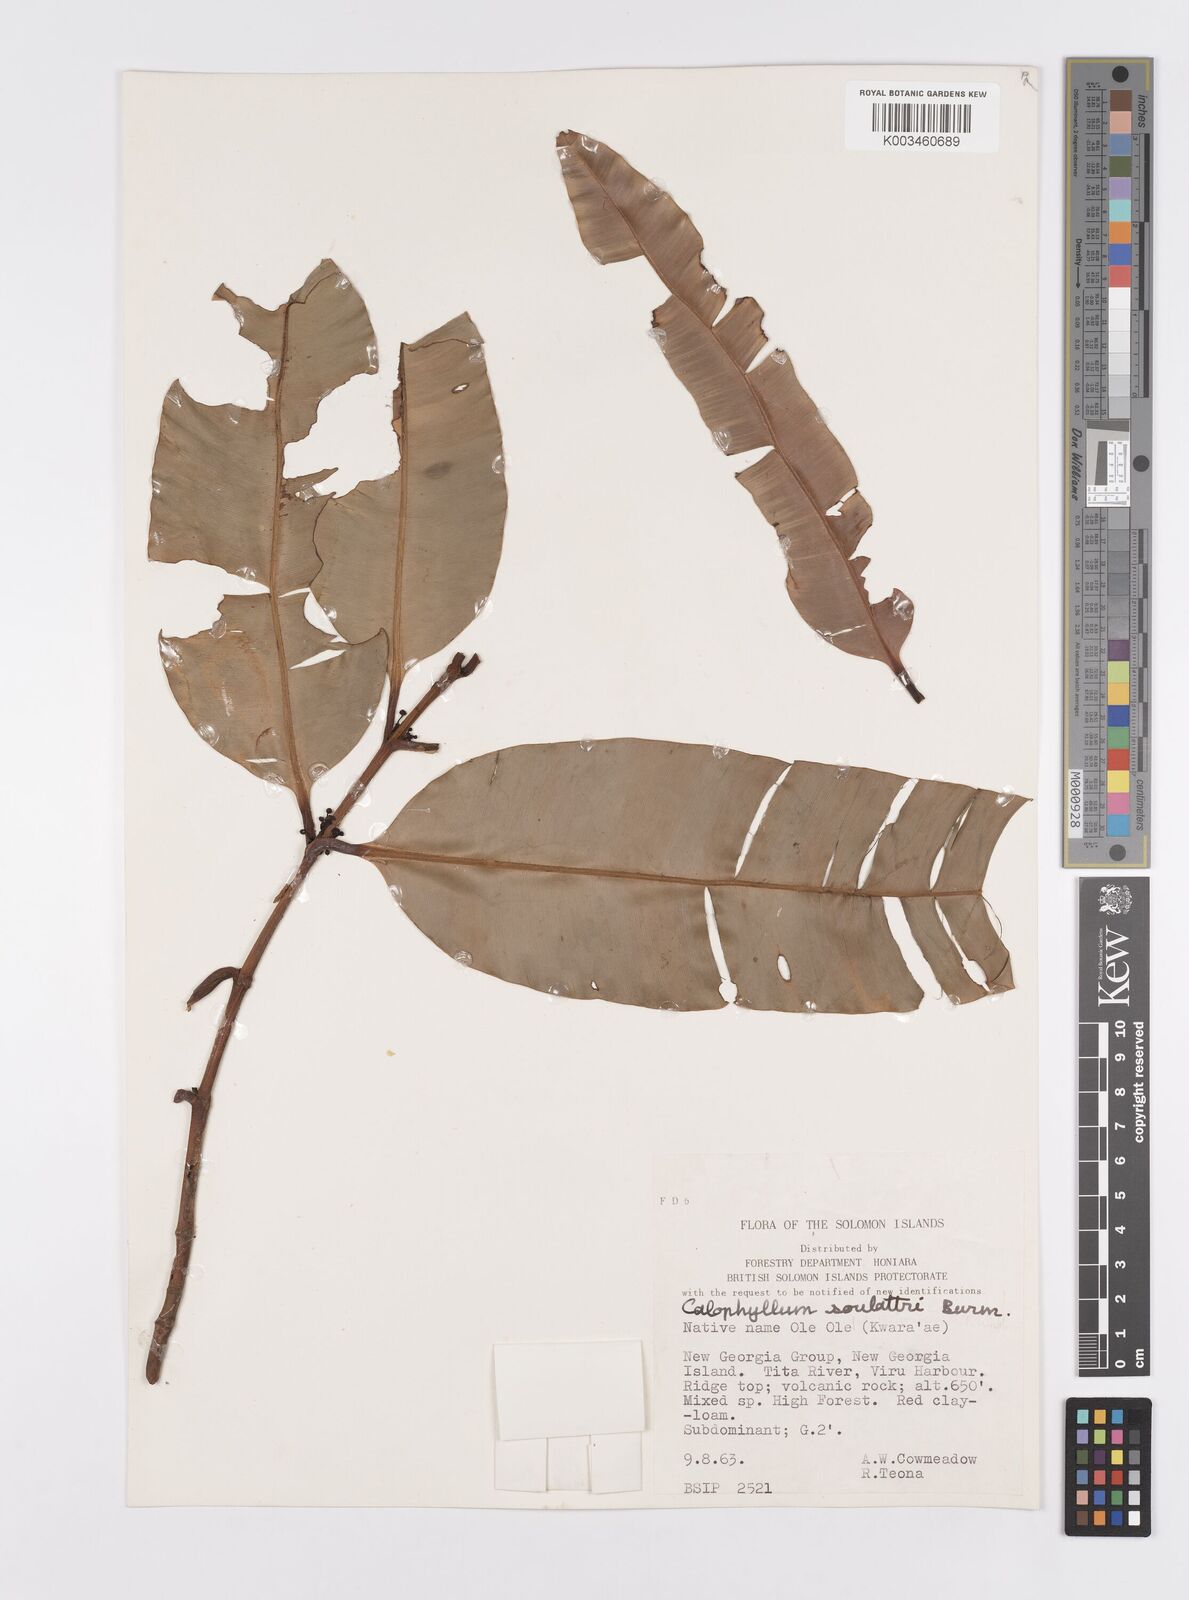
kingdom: Plantae
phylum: Tracheophyta
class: Magnoliopsida
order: Malpighiales
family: Calophyllaceae
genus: Calophyllum
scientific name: Calophyllum soulattri
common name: Bitangoor boonot
